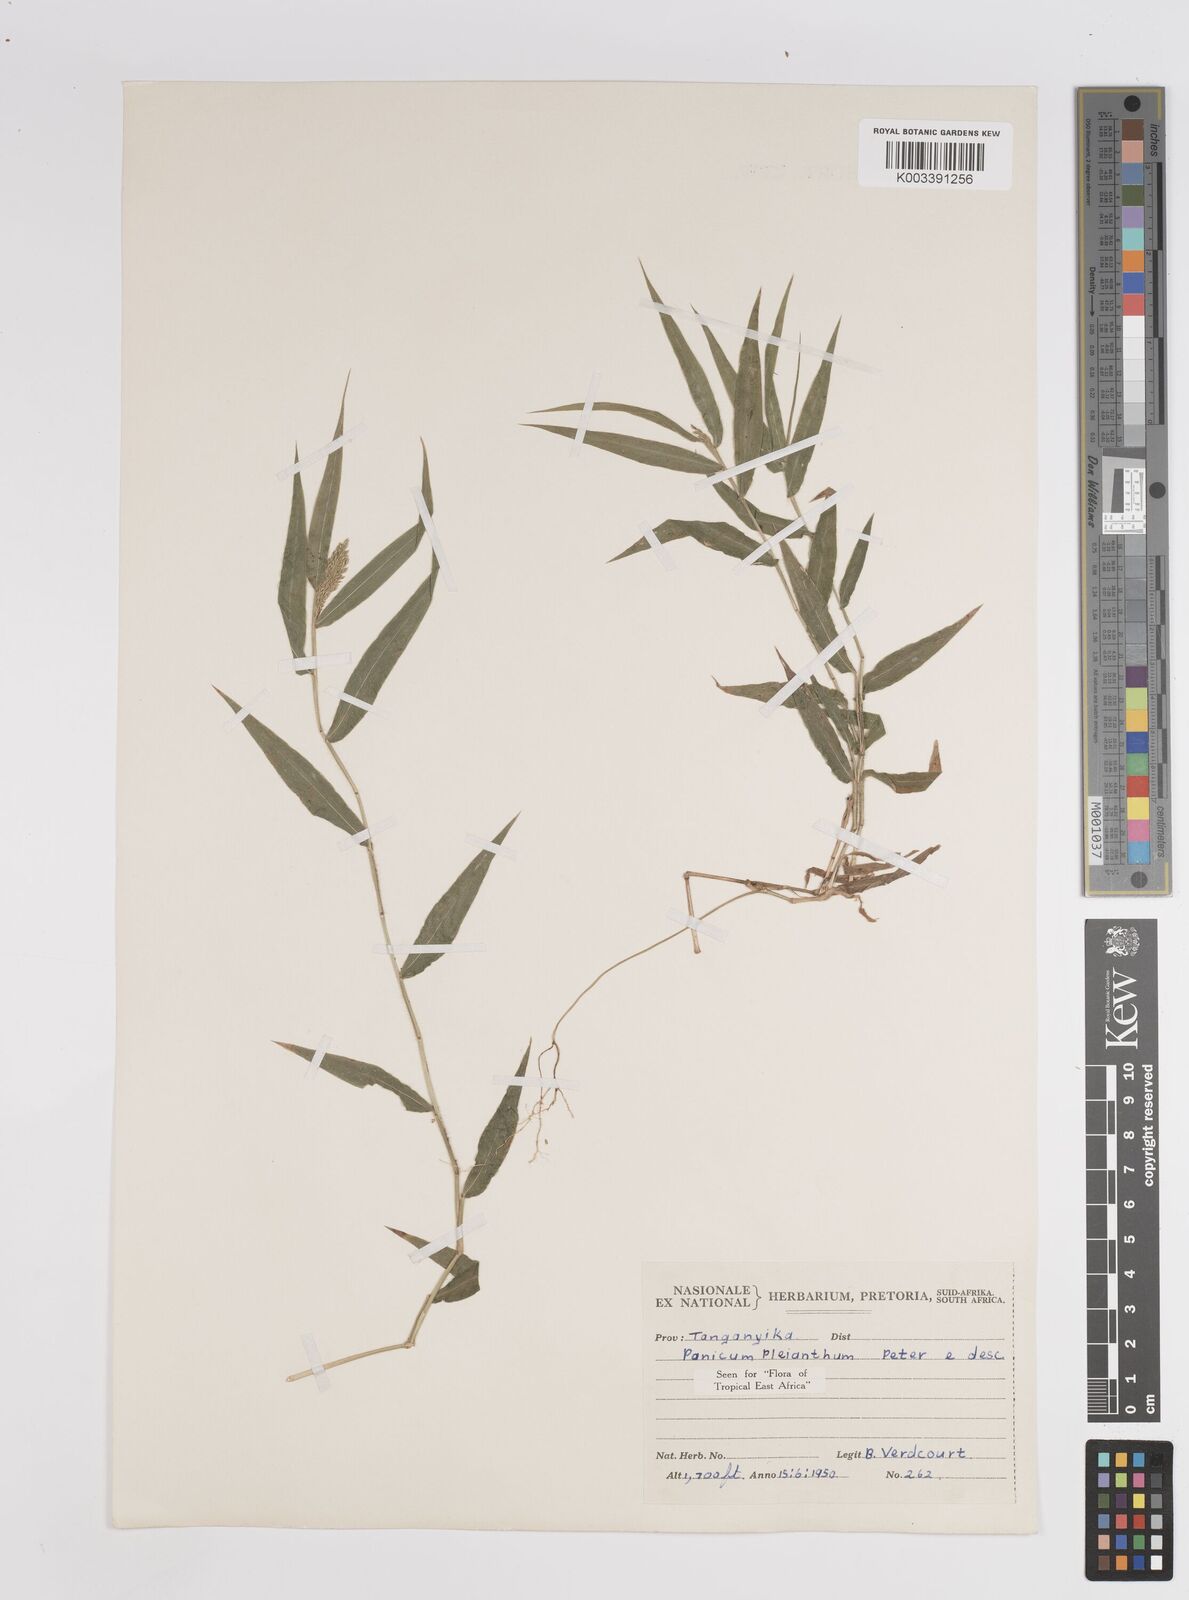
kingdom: Plantae
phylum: Tracheophyta
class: Liliopsida
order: Poales
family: Poaceae
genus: Panicum
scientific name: Panicum pleianthum
